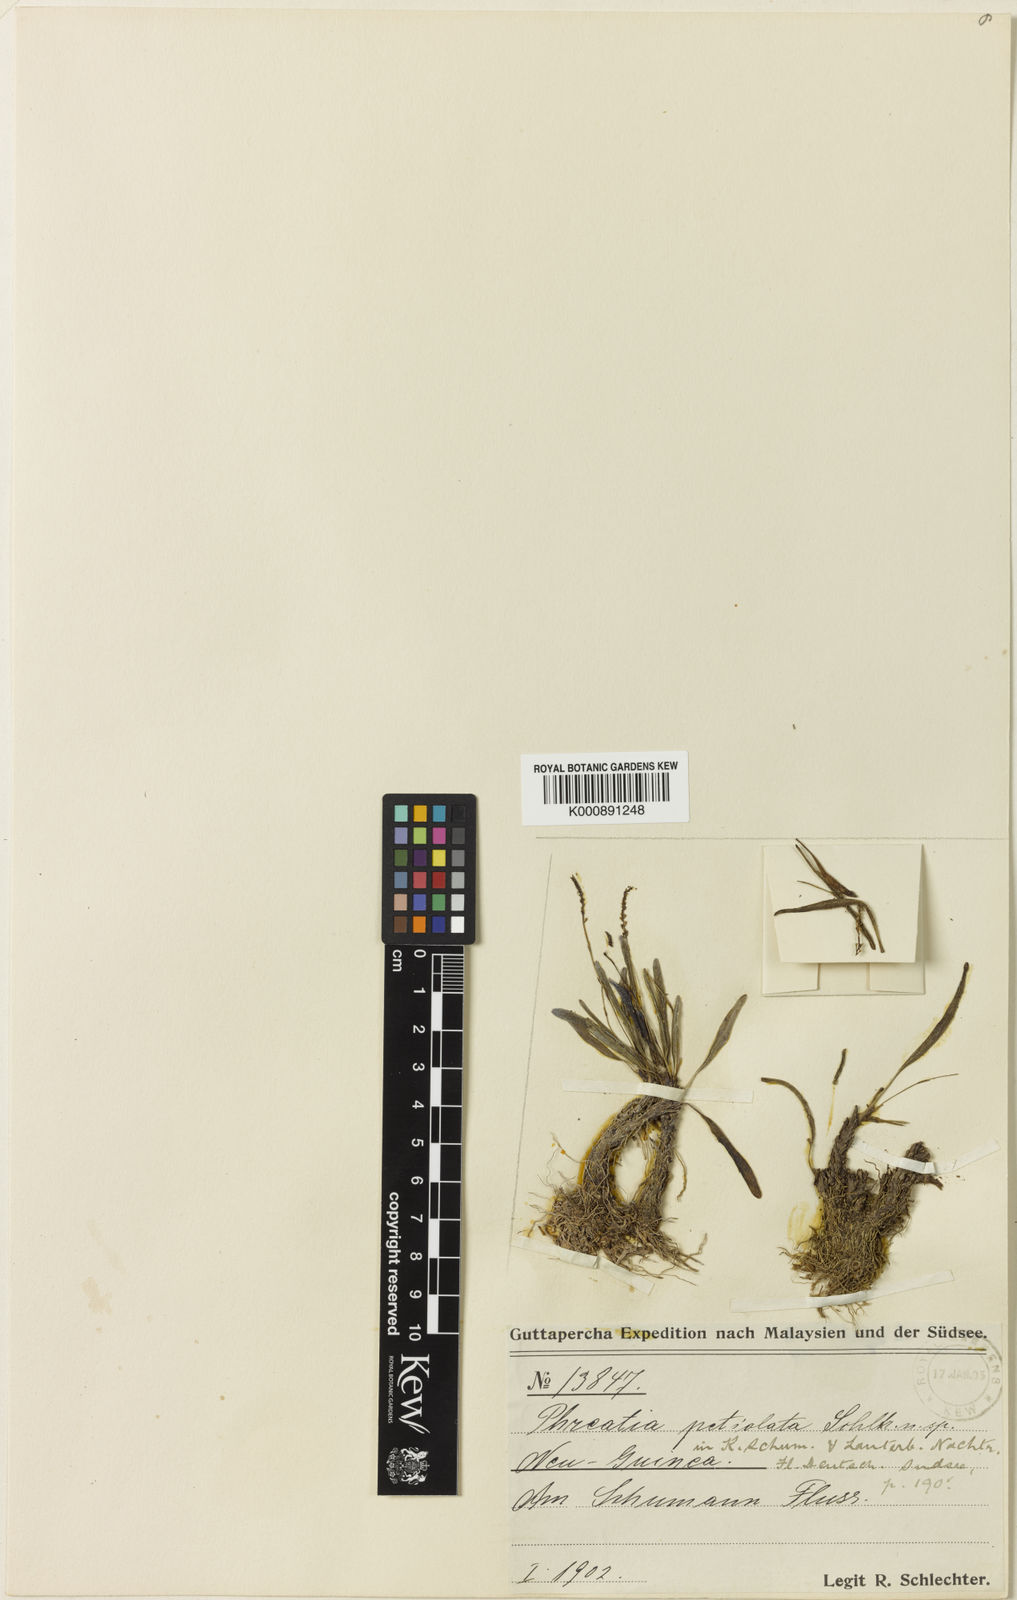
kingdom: Plantae
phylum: Tracheophyta
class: Liliopsida
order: Asparagales
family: Orchidaceae
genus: Octarrhena
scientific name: Octarrhena
